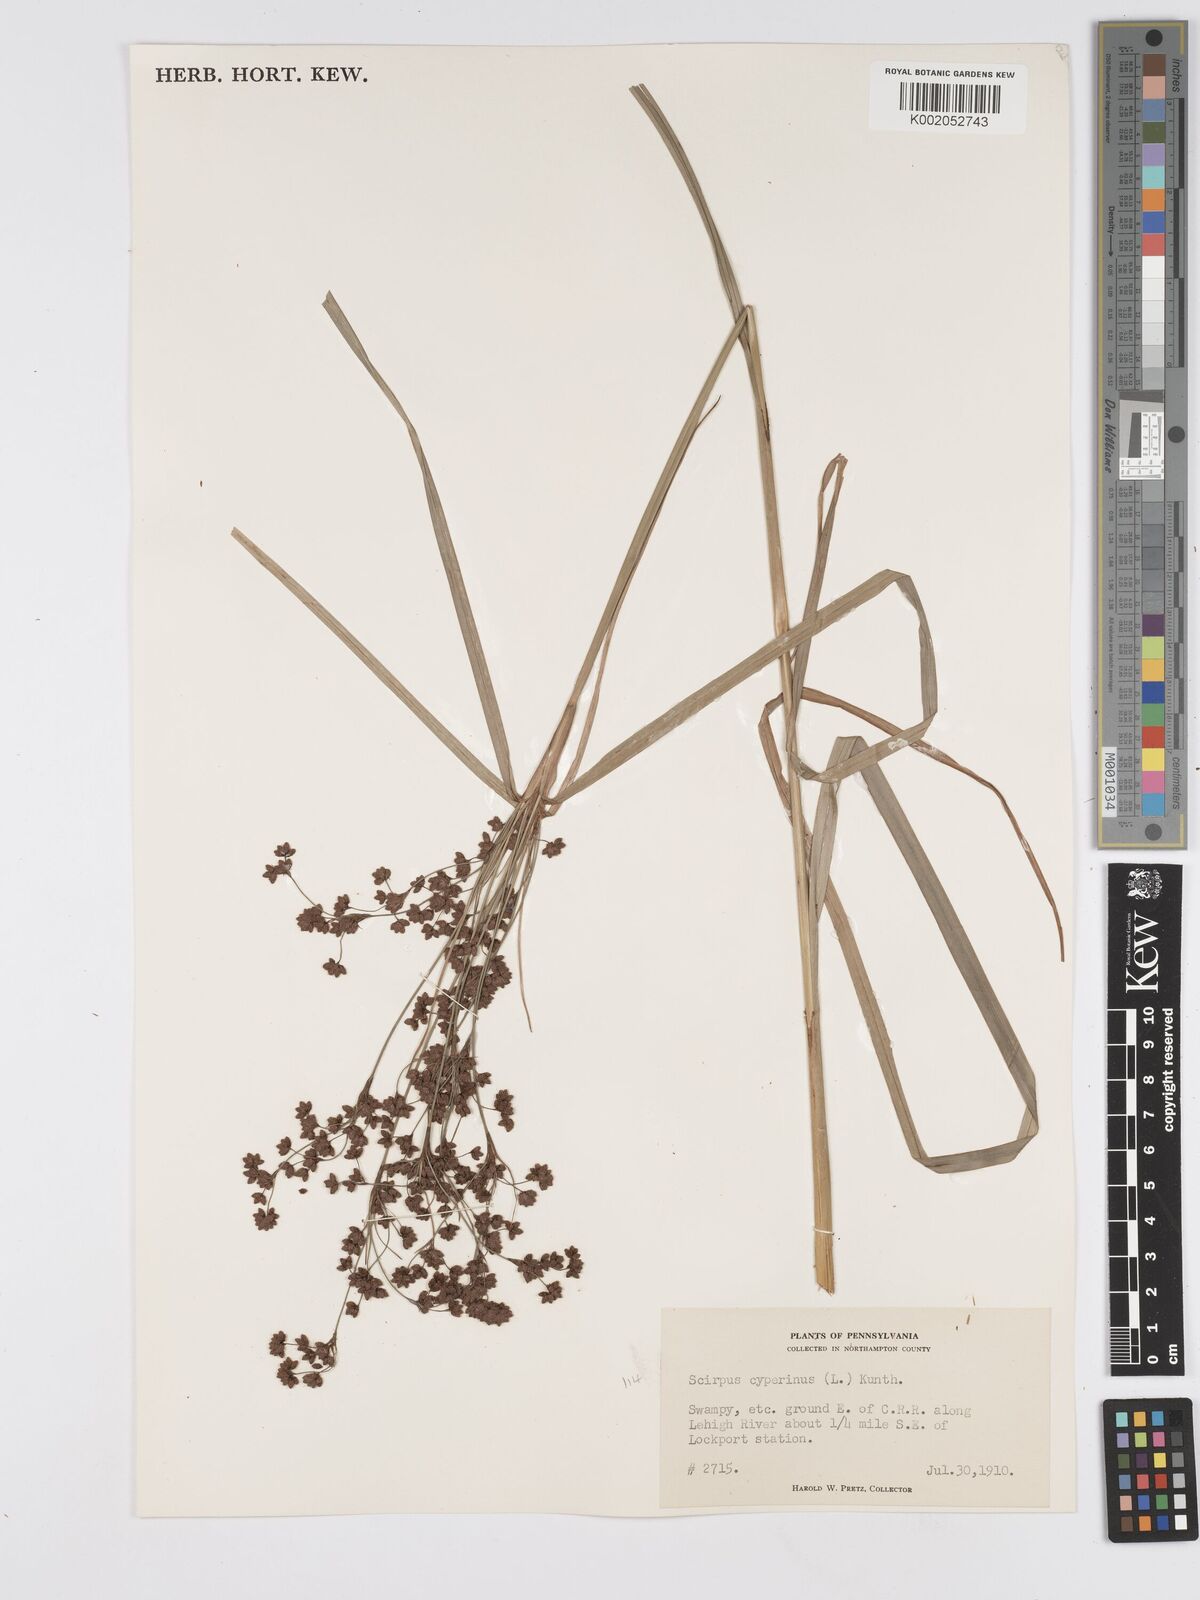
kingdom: Plantae
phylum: Tracheophyta
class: Liliopsida
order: Poales
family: Cyperaceae
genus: Scirpus
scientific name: Scirpus cyperinus
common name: Black-sheathed bulrush
